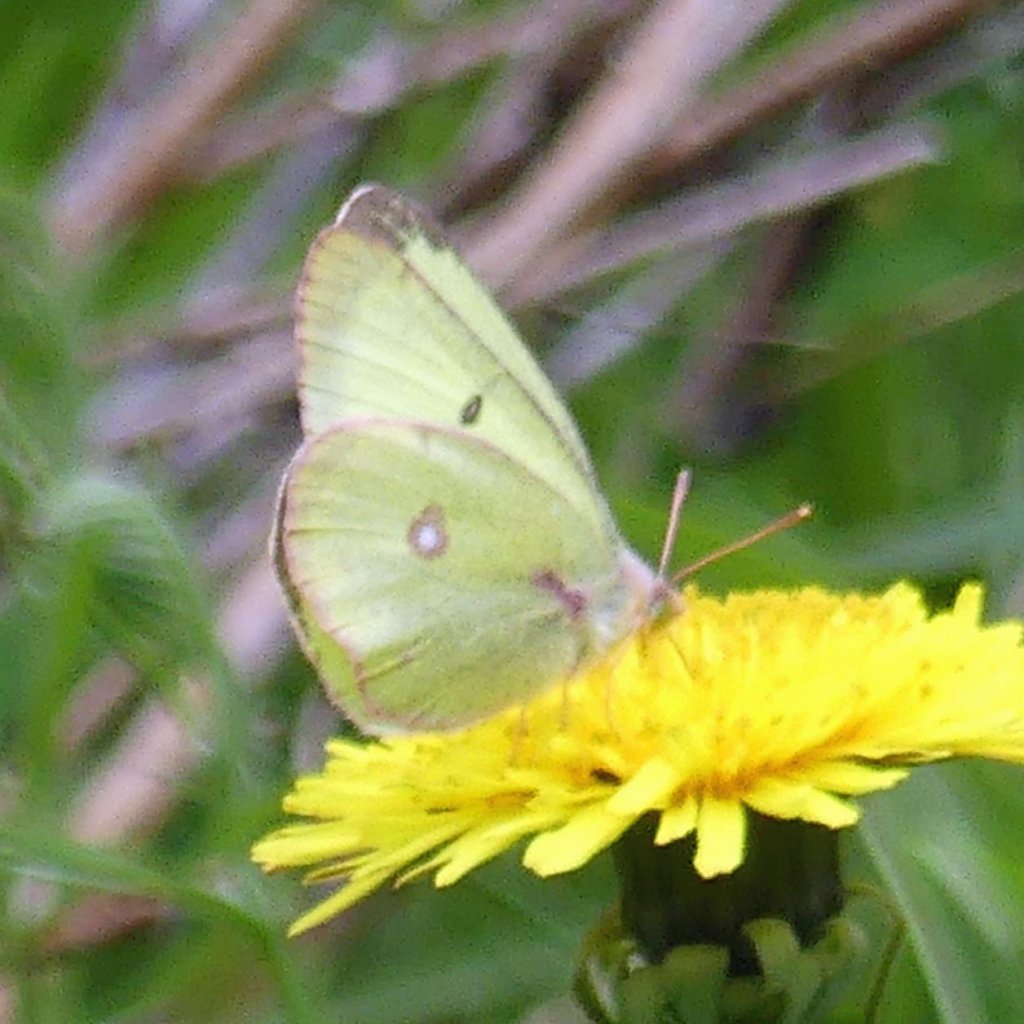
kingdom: Animalia
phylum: Arthropoda
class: Insecta
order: Lepidoptera
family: Pieridae
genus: Colias
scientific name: Colias philodice
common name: Clouded Sulphur
